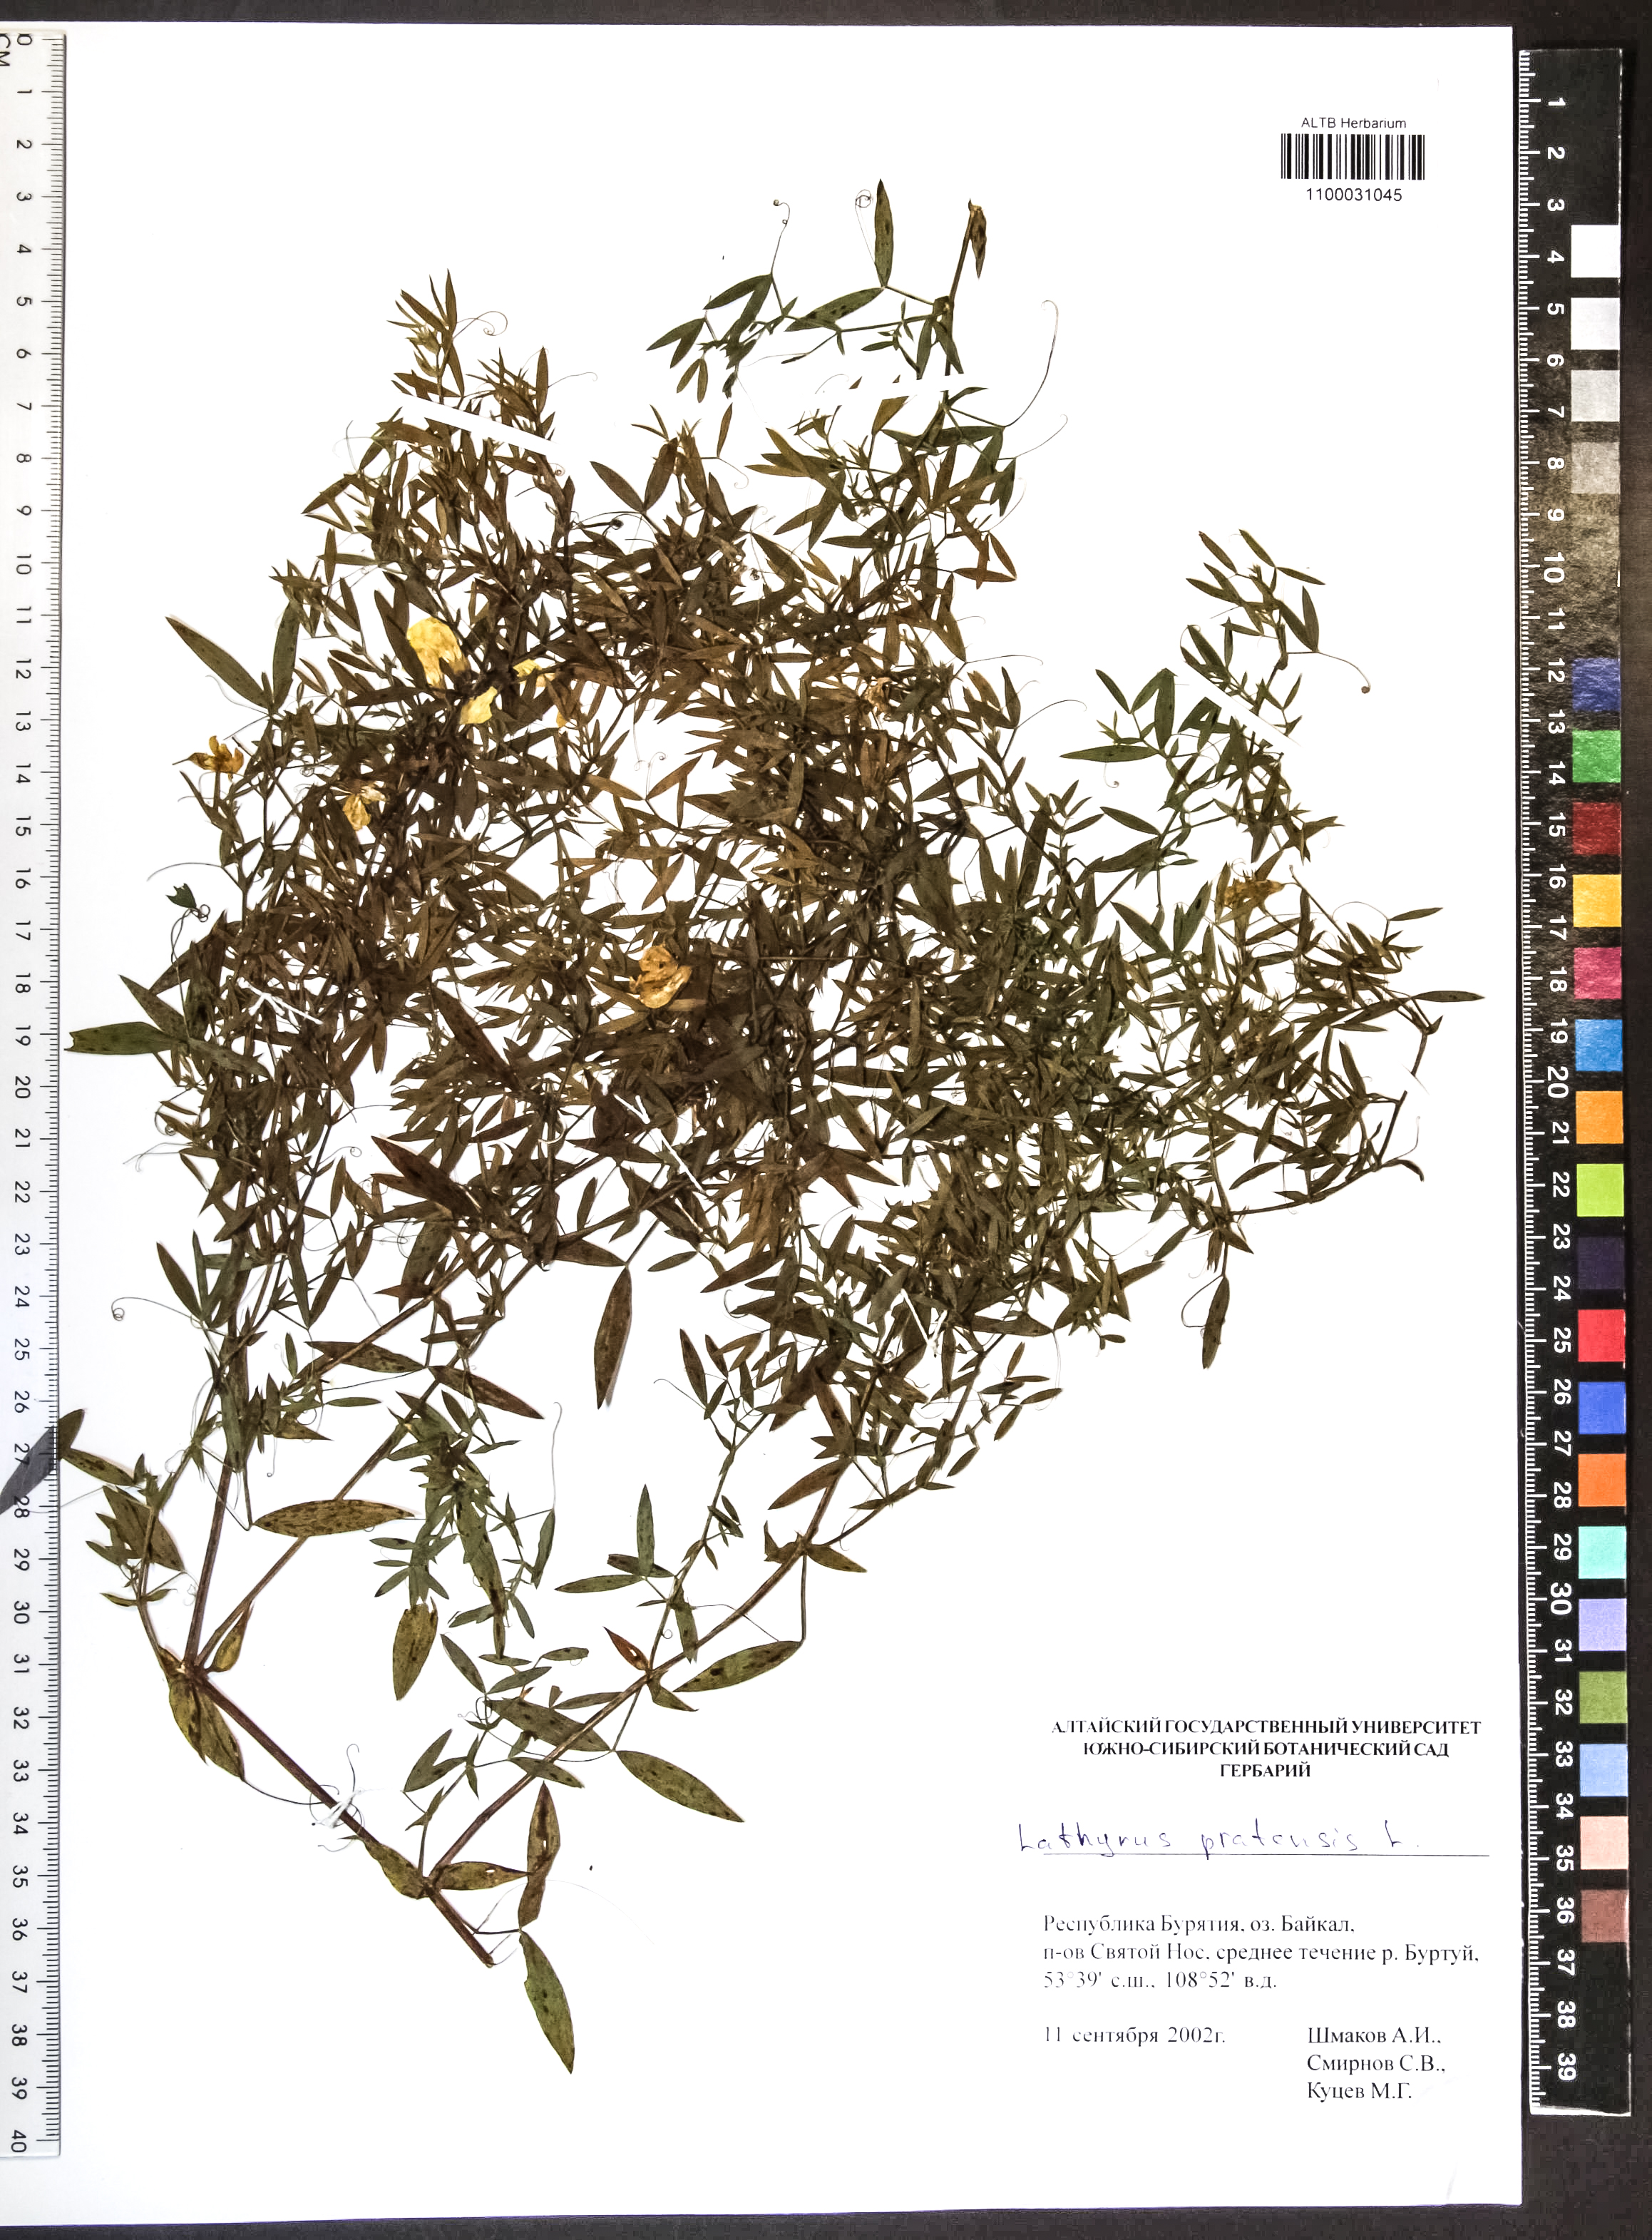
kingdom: Plantae
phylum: Tracheophyta
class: Magnoliopsida
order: Fabales
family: Fabaceae
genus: Lathyrus
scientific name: Lathyrus pratensis
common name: Meadow vetchling
